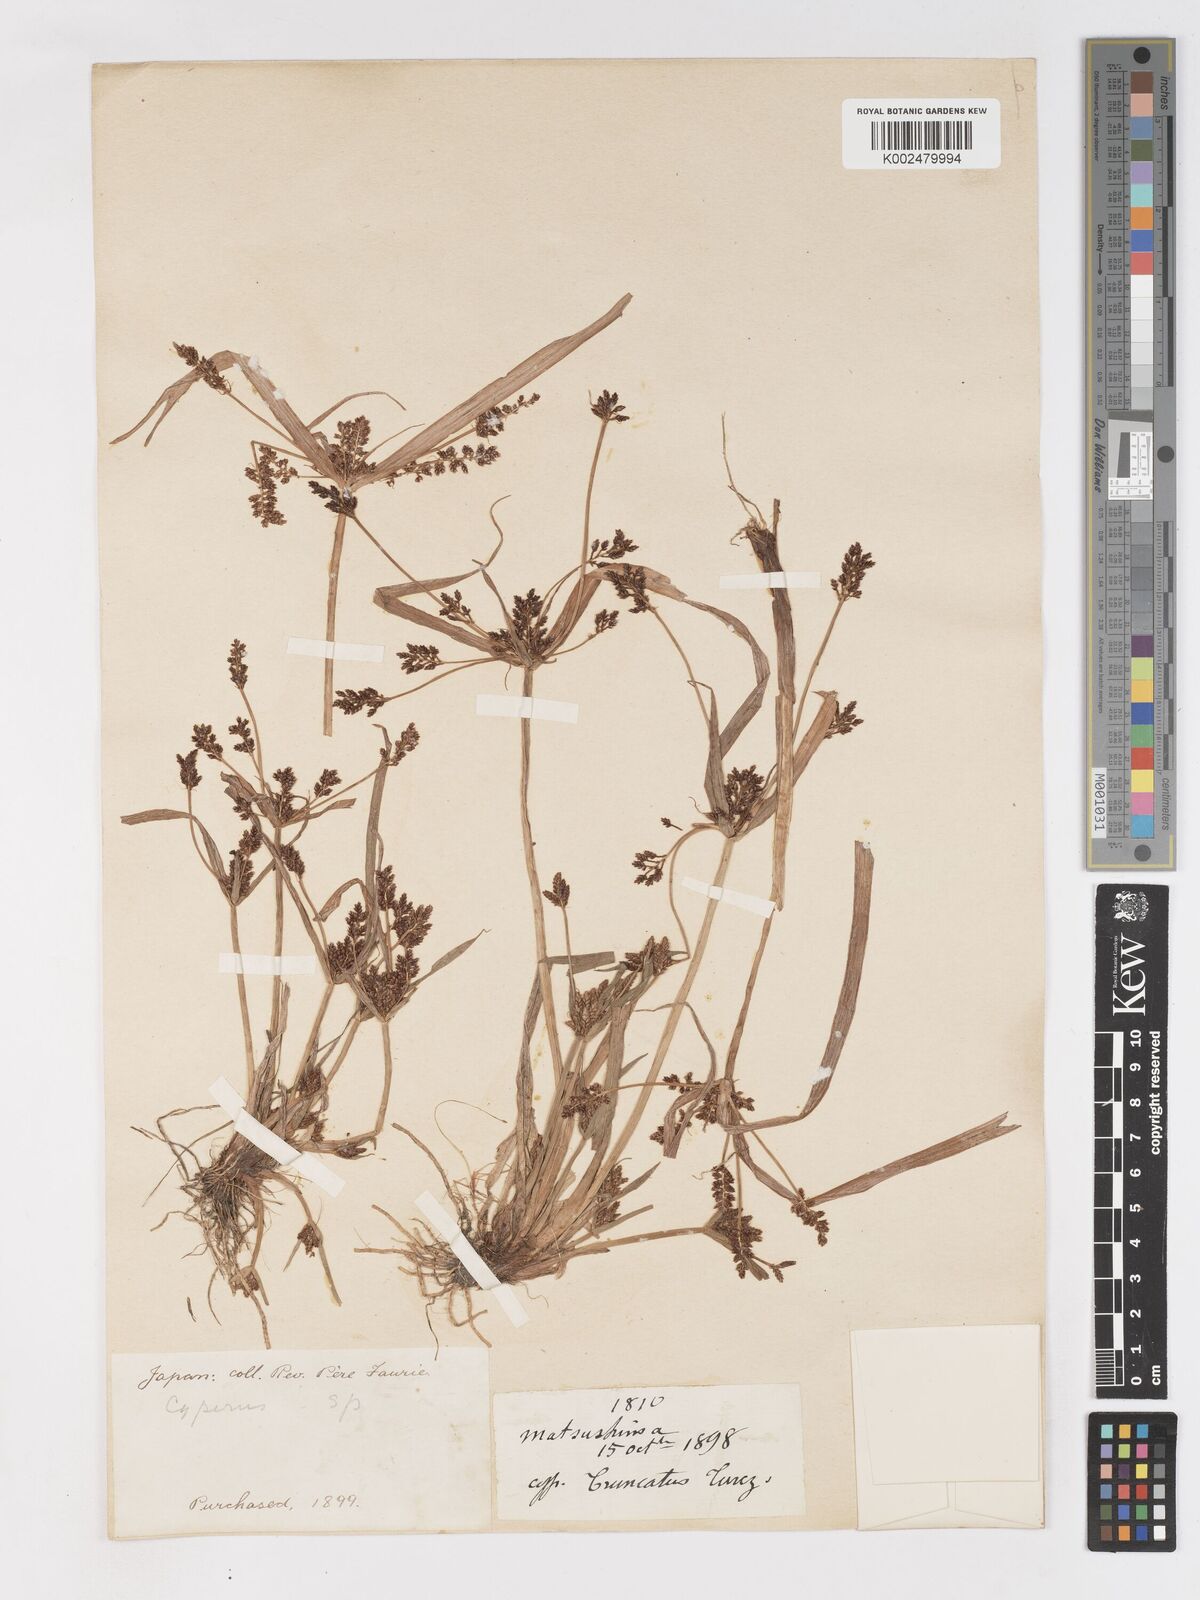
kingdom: Plantae
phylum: Tracheophyta
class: Liliopsida
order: Poales
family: Cyperaceae
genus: Cyperus
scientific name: Cyperus orthostachyus
